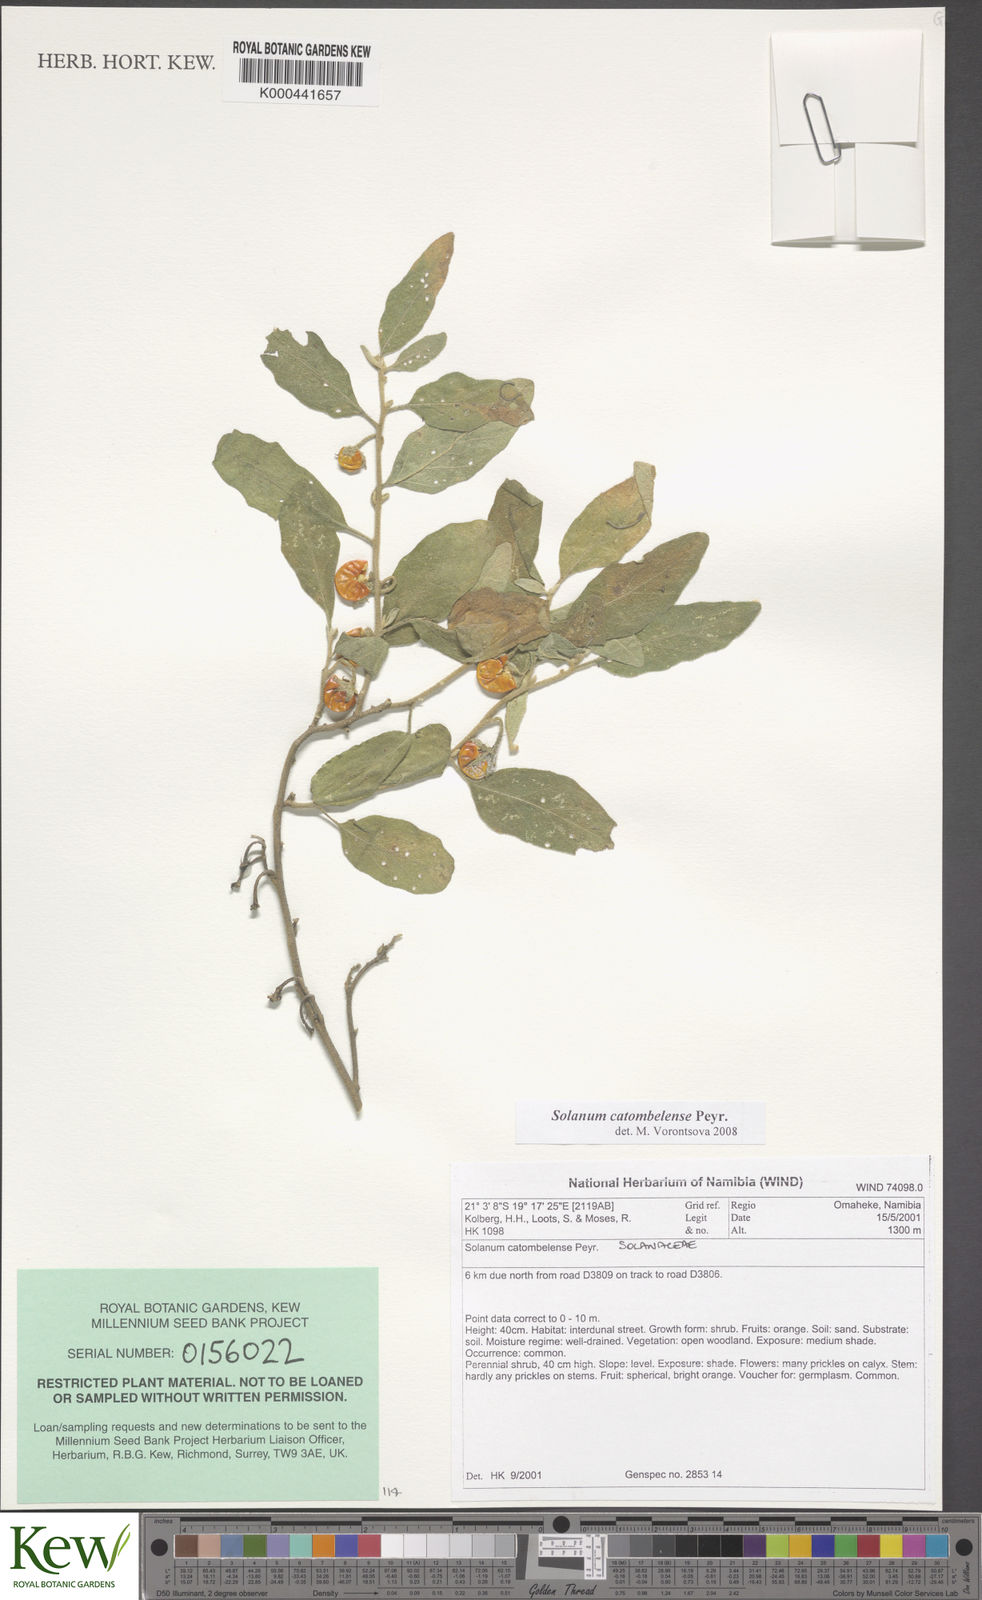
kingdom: Plantae
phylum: Tracheophyta
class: Magnoliopsida
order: Solanales
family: Solanaceae
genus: Solanum
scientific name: Solanum catombelense
